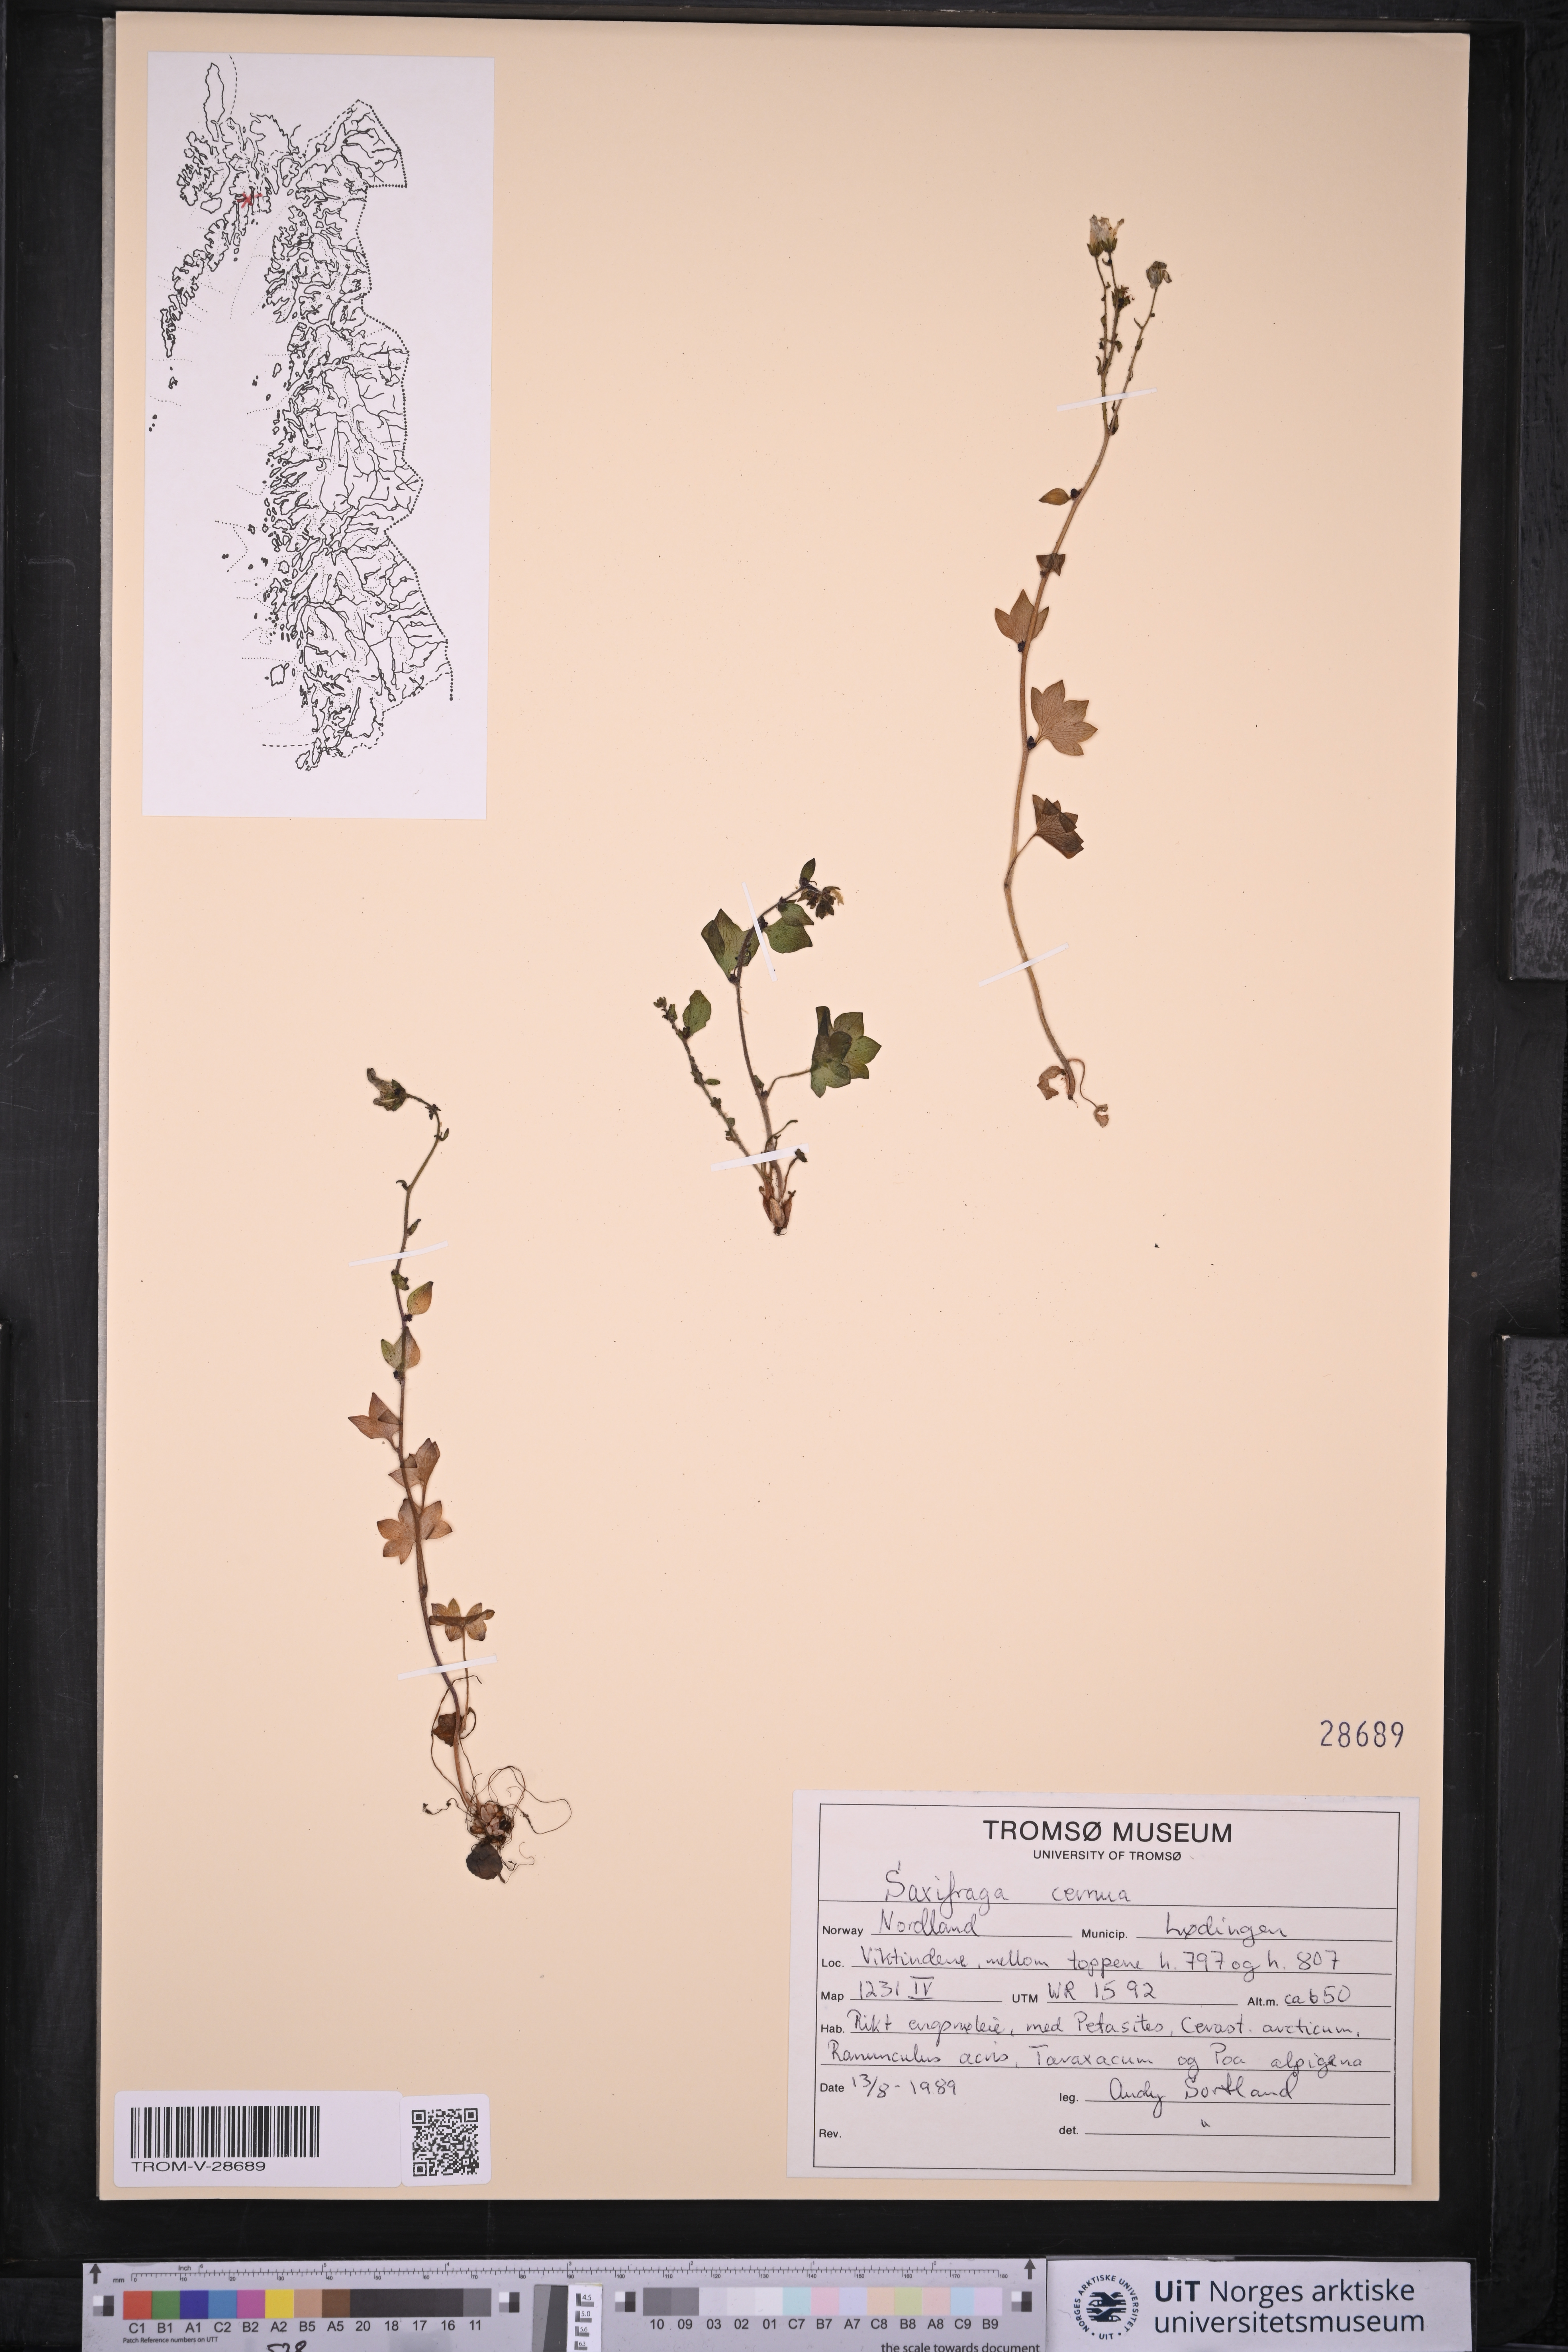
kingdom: Plantae
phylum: Tracheophyta
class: Magnoliopsida
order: Saxifragales
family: Saxifragaceae
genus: Saxifraga
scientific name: Saxifraga cernua
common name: Drooping saxifrage
